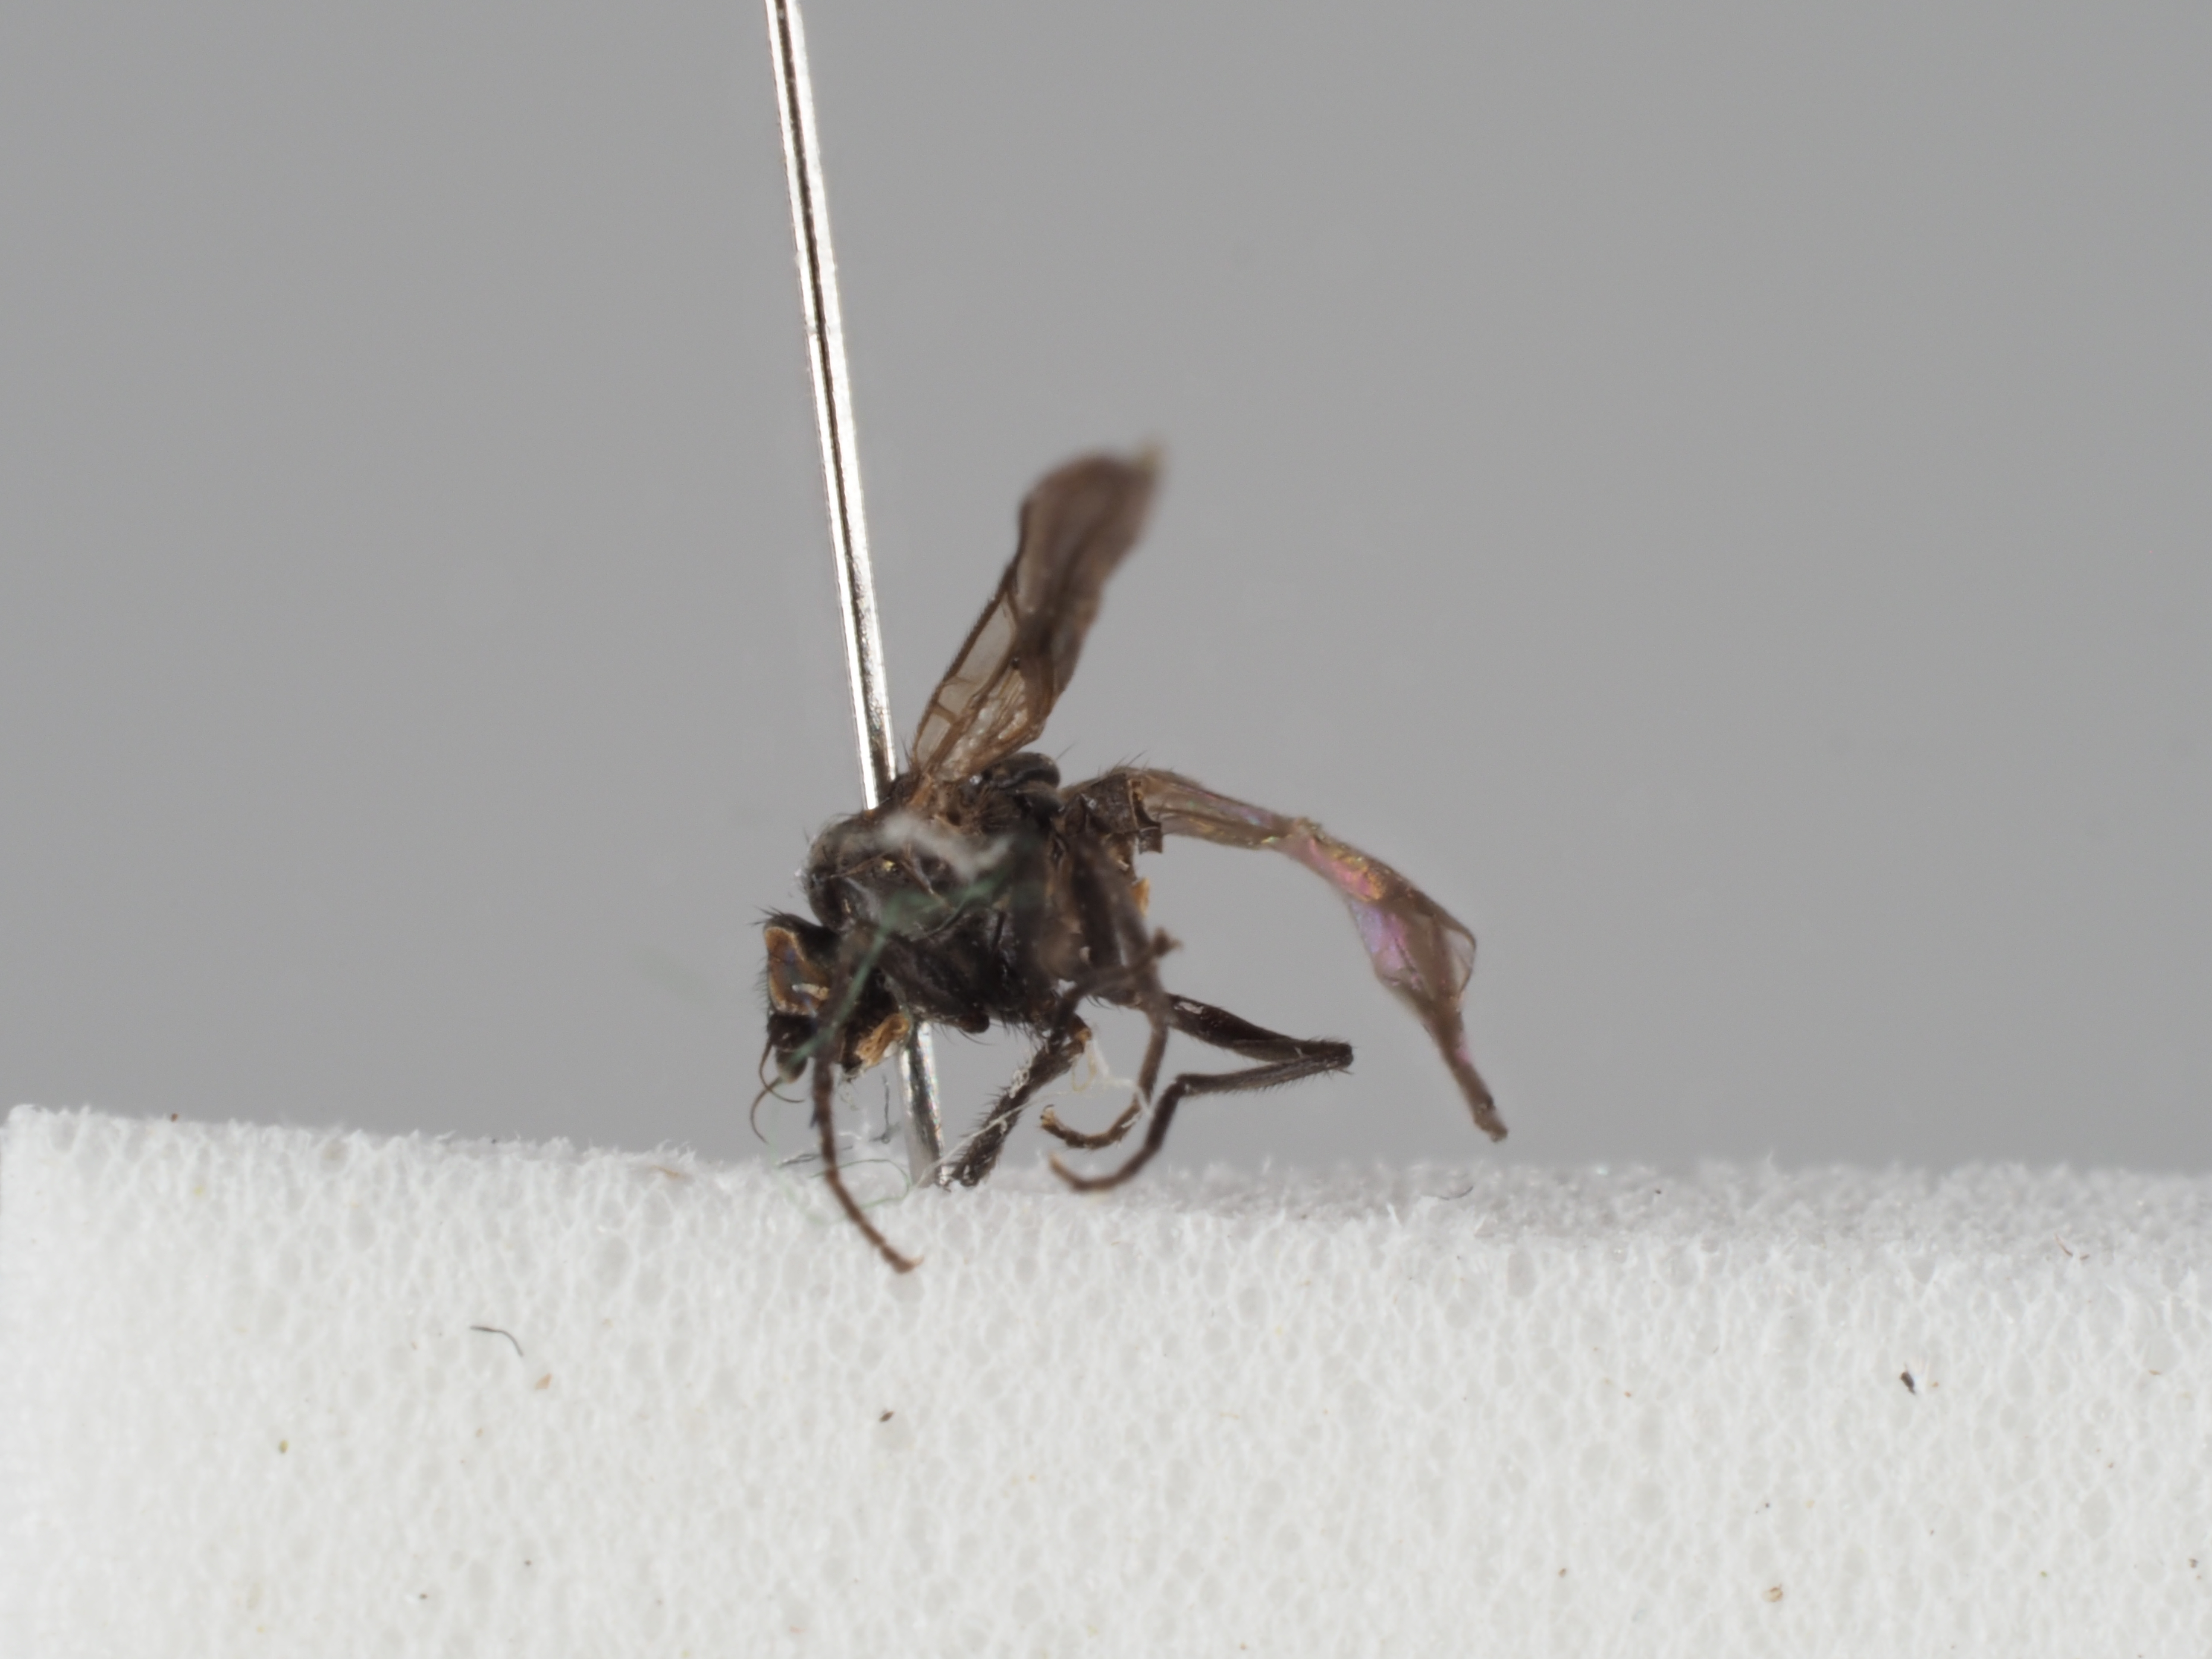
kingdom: Animalia
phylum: Arthropoda
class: Insecta
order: Diptera
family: Agromyzidae
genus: Phytomyza
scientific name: Phytomyza calthivora
